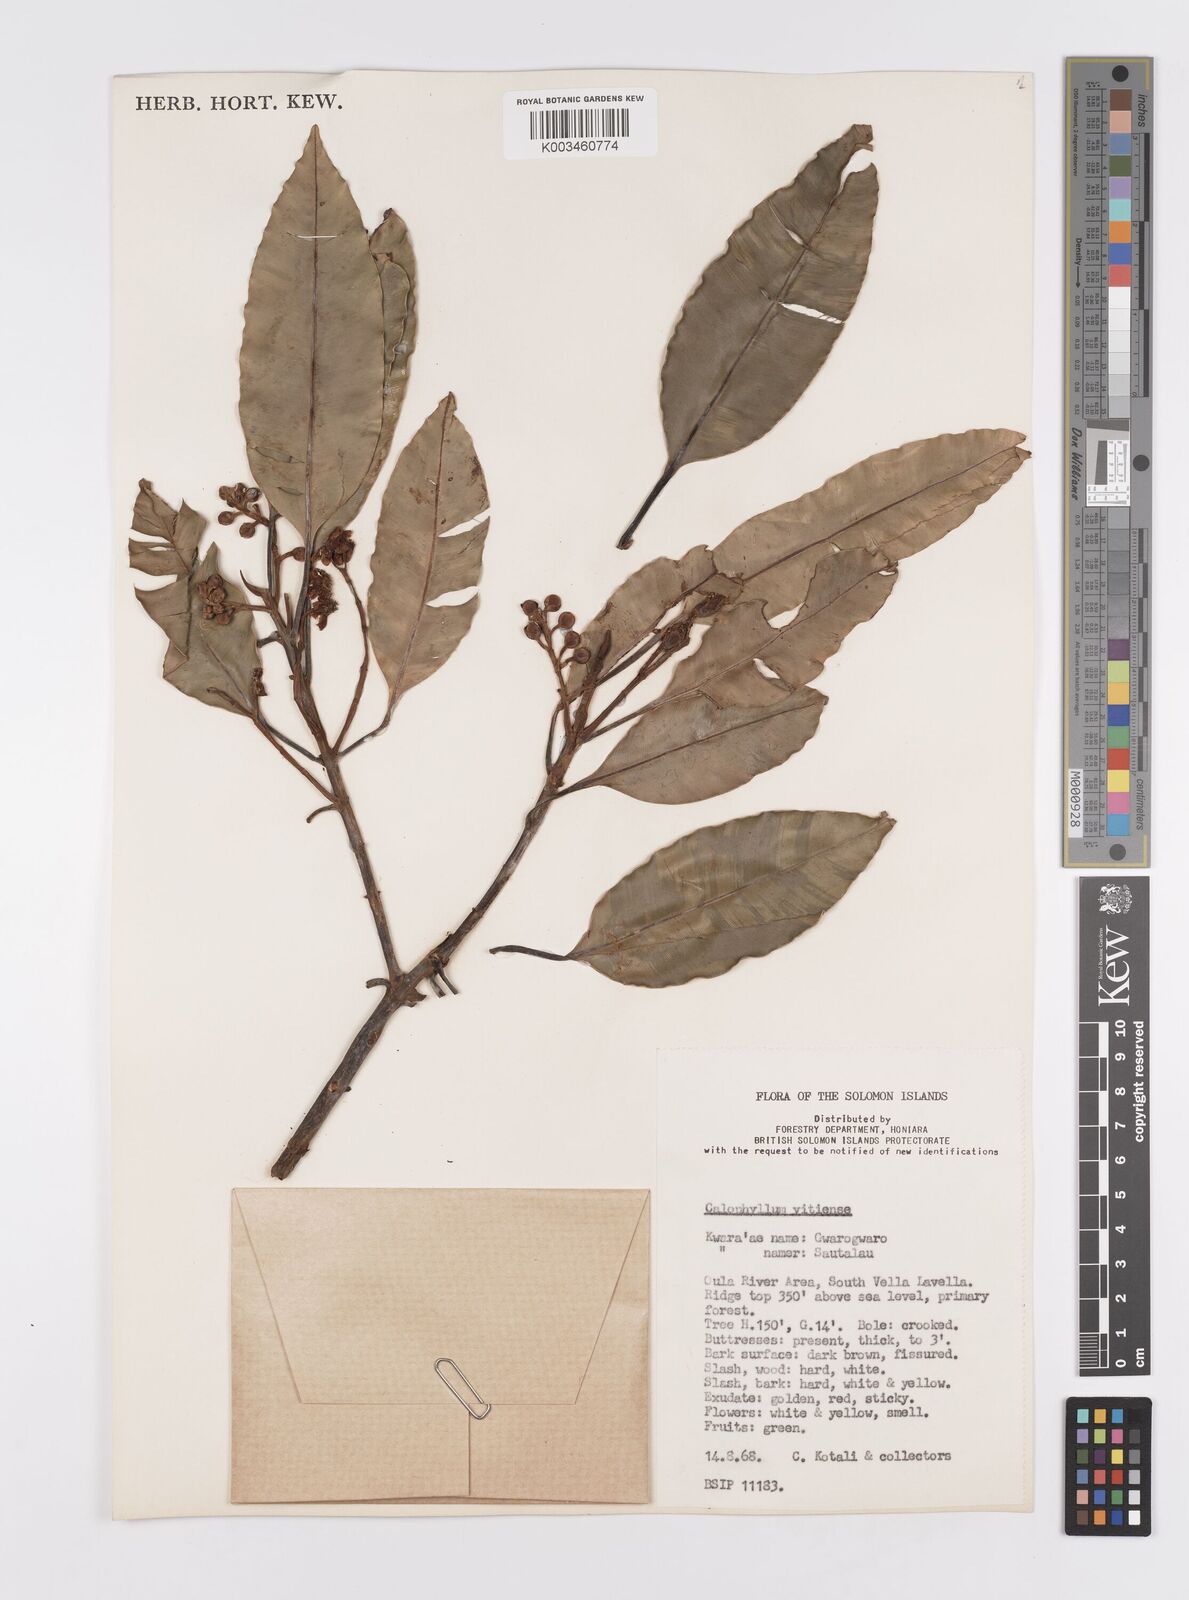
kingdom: Plantae
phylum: Tracheophyta
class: Magnoliopsida
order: Malpighiales
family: Calophyllaceae
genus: Calophyllum
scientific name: Calophyllum vitiense
